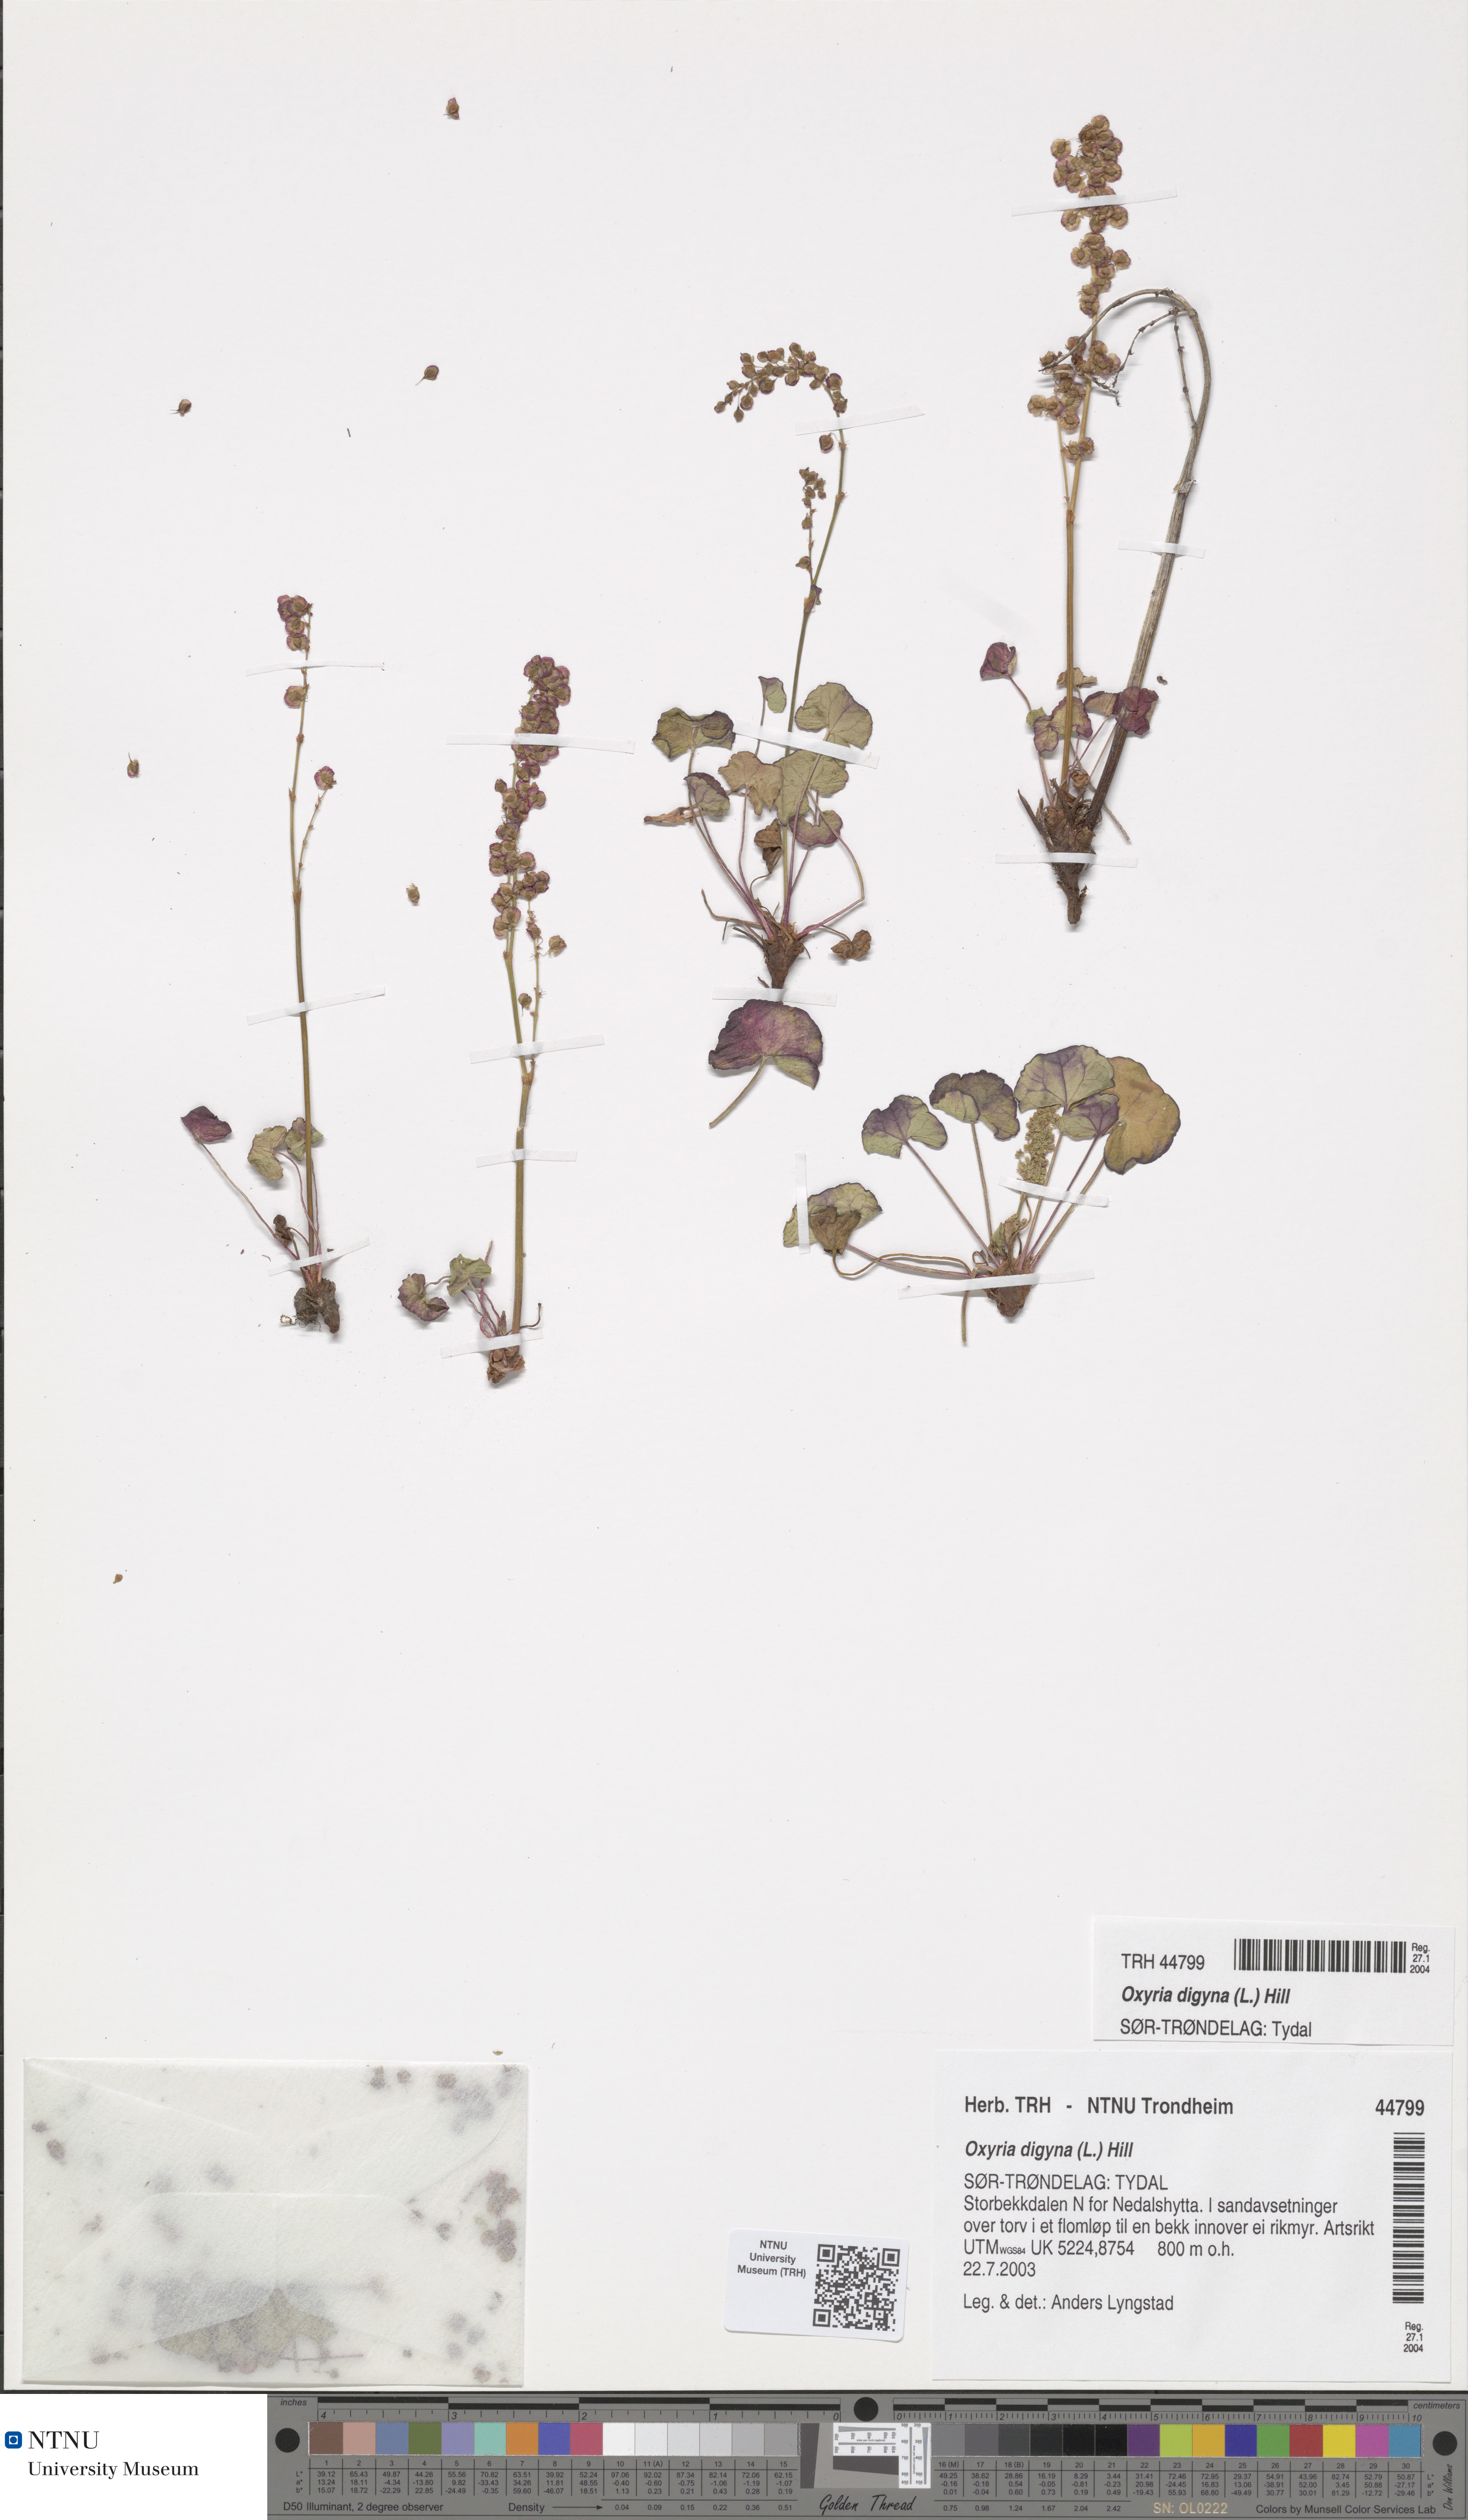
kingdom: Plantae
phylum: Tracheophyta
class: Magnoliopsida
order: Caryophyllales
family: Polygonaceae
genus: Oxyria
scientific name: Oxyria digyna
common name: Alpine mountain-sorrel
